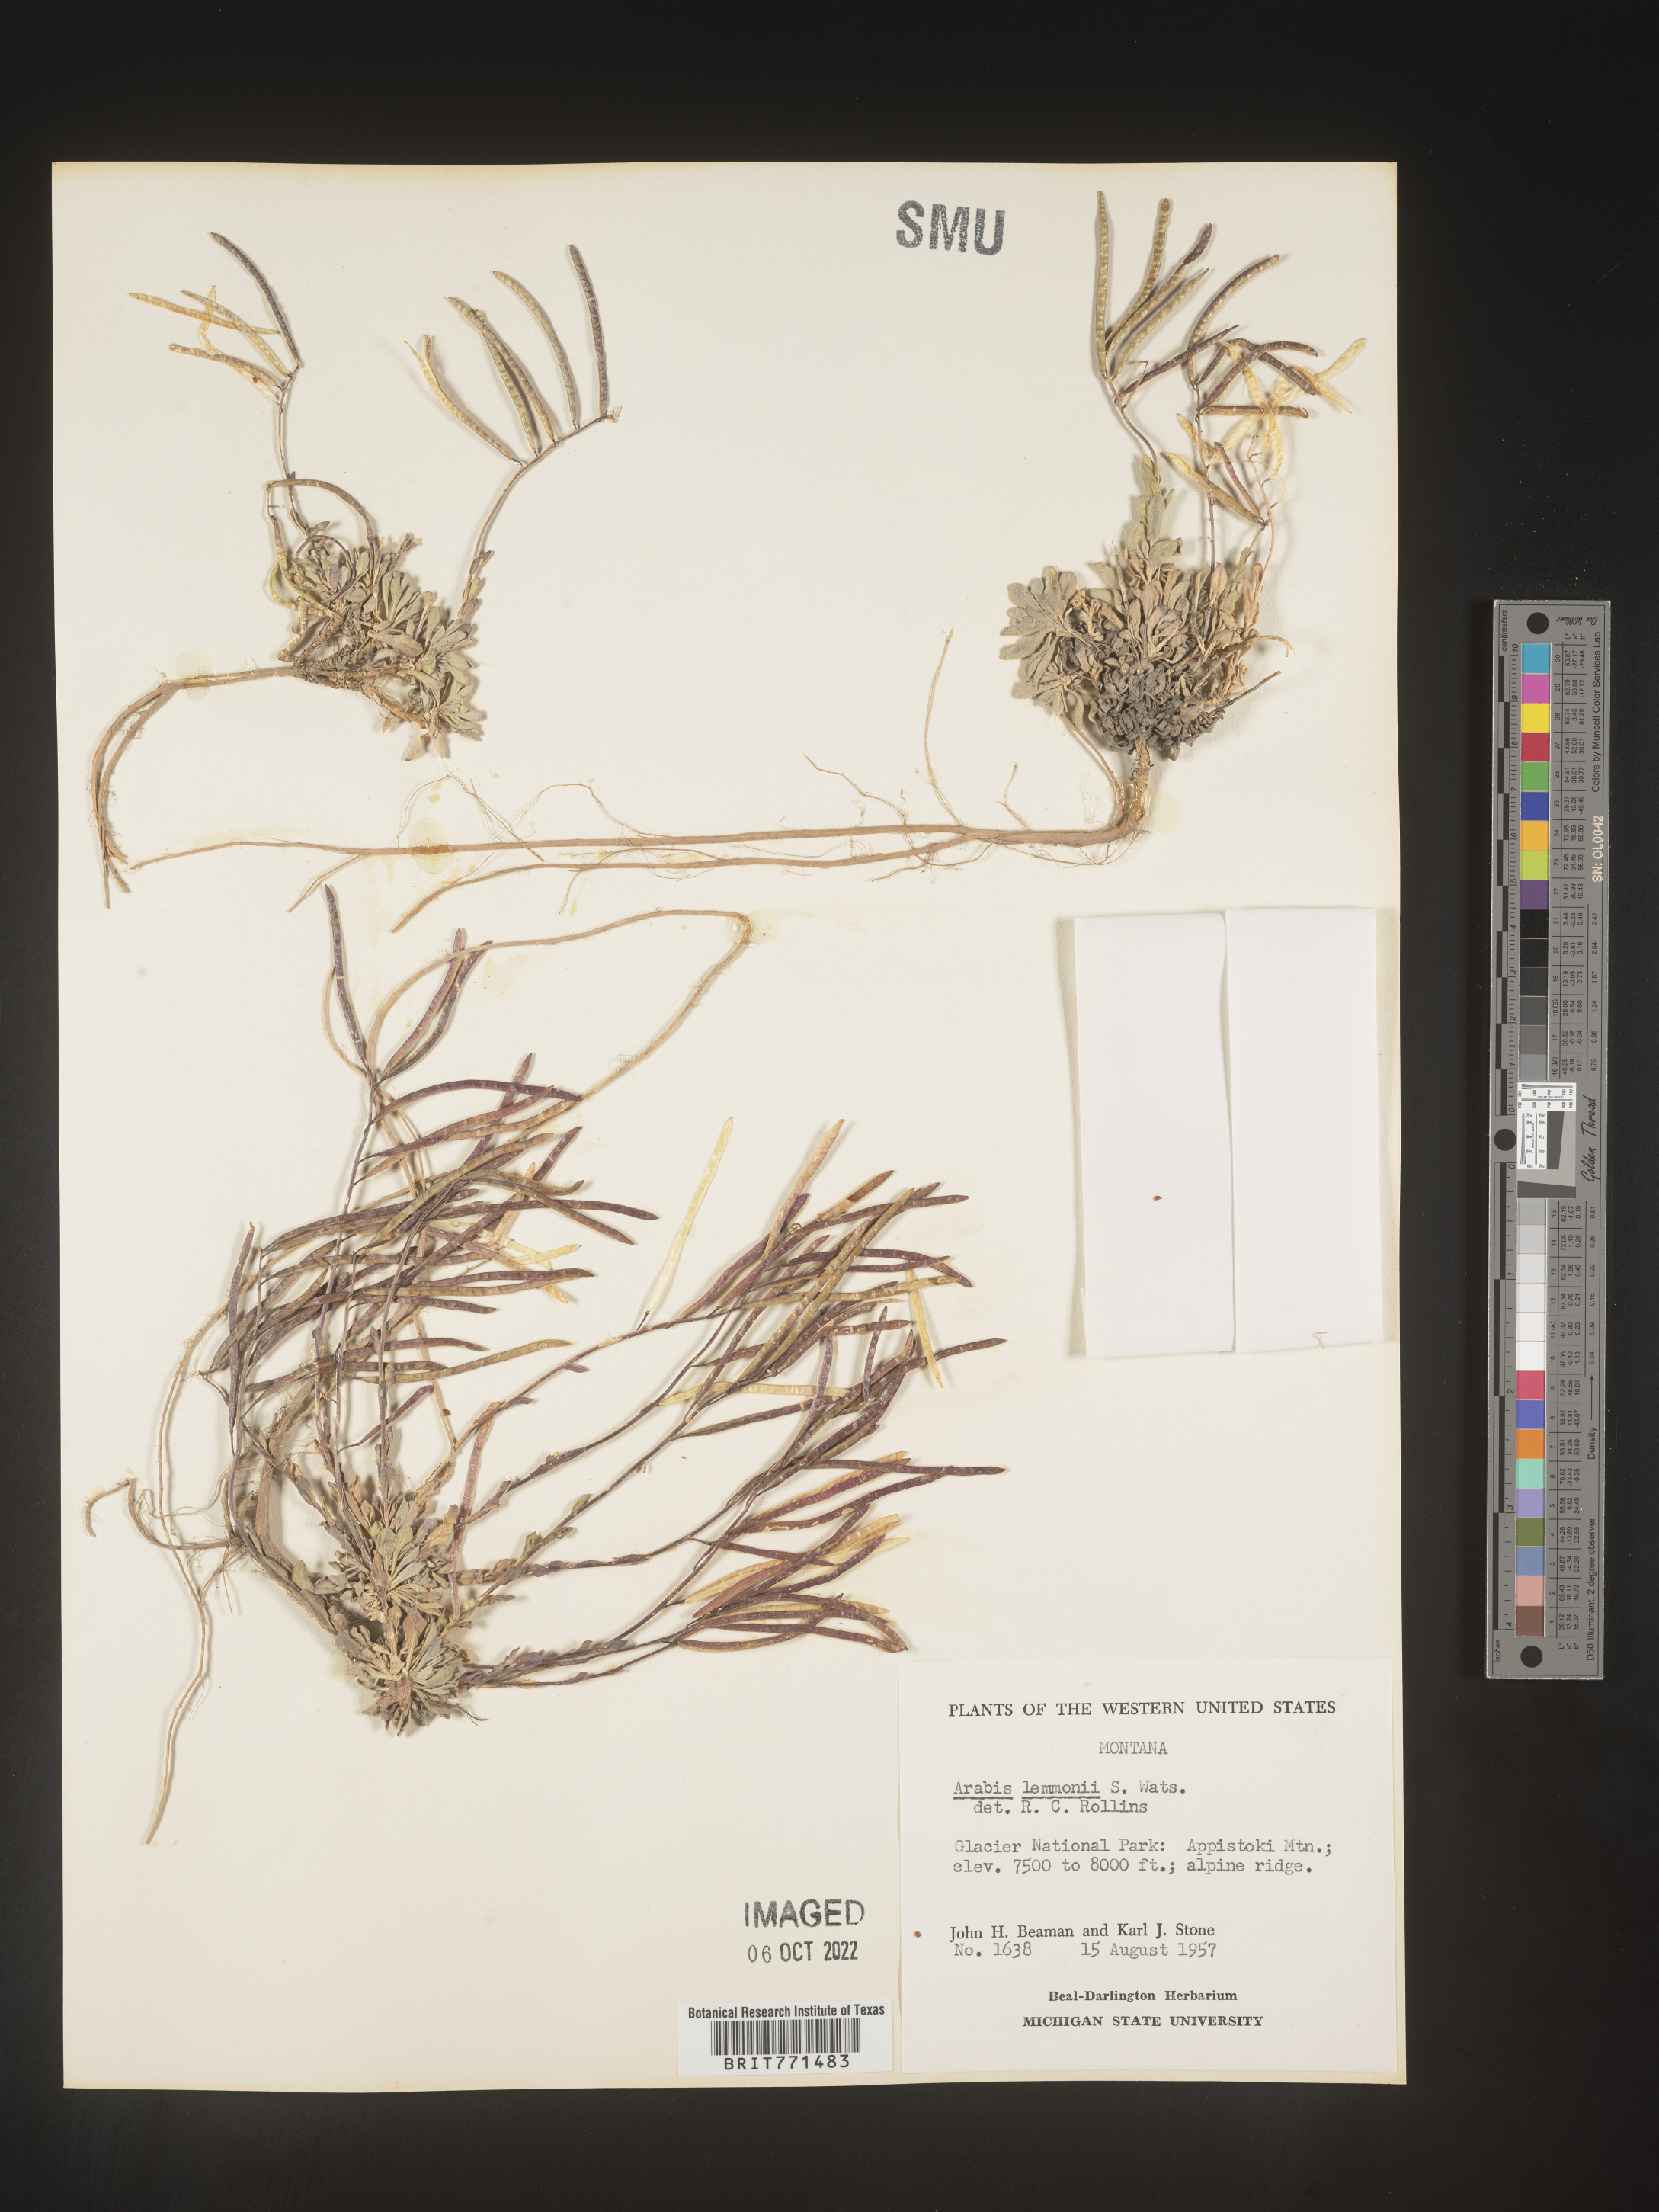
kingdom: Plantae
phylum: Tracheophyta
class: Magnoliopsida
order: Brassicales
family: Brassicaceae
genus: Arabis
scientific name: Arabis
